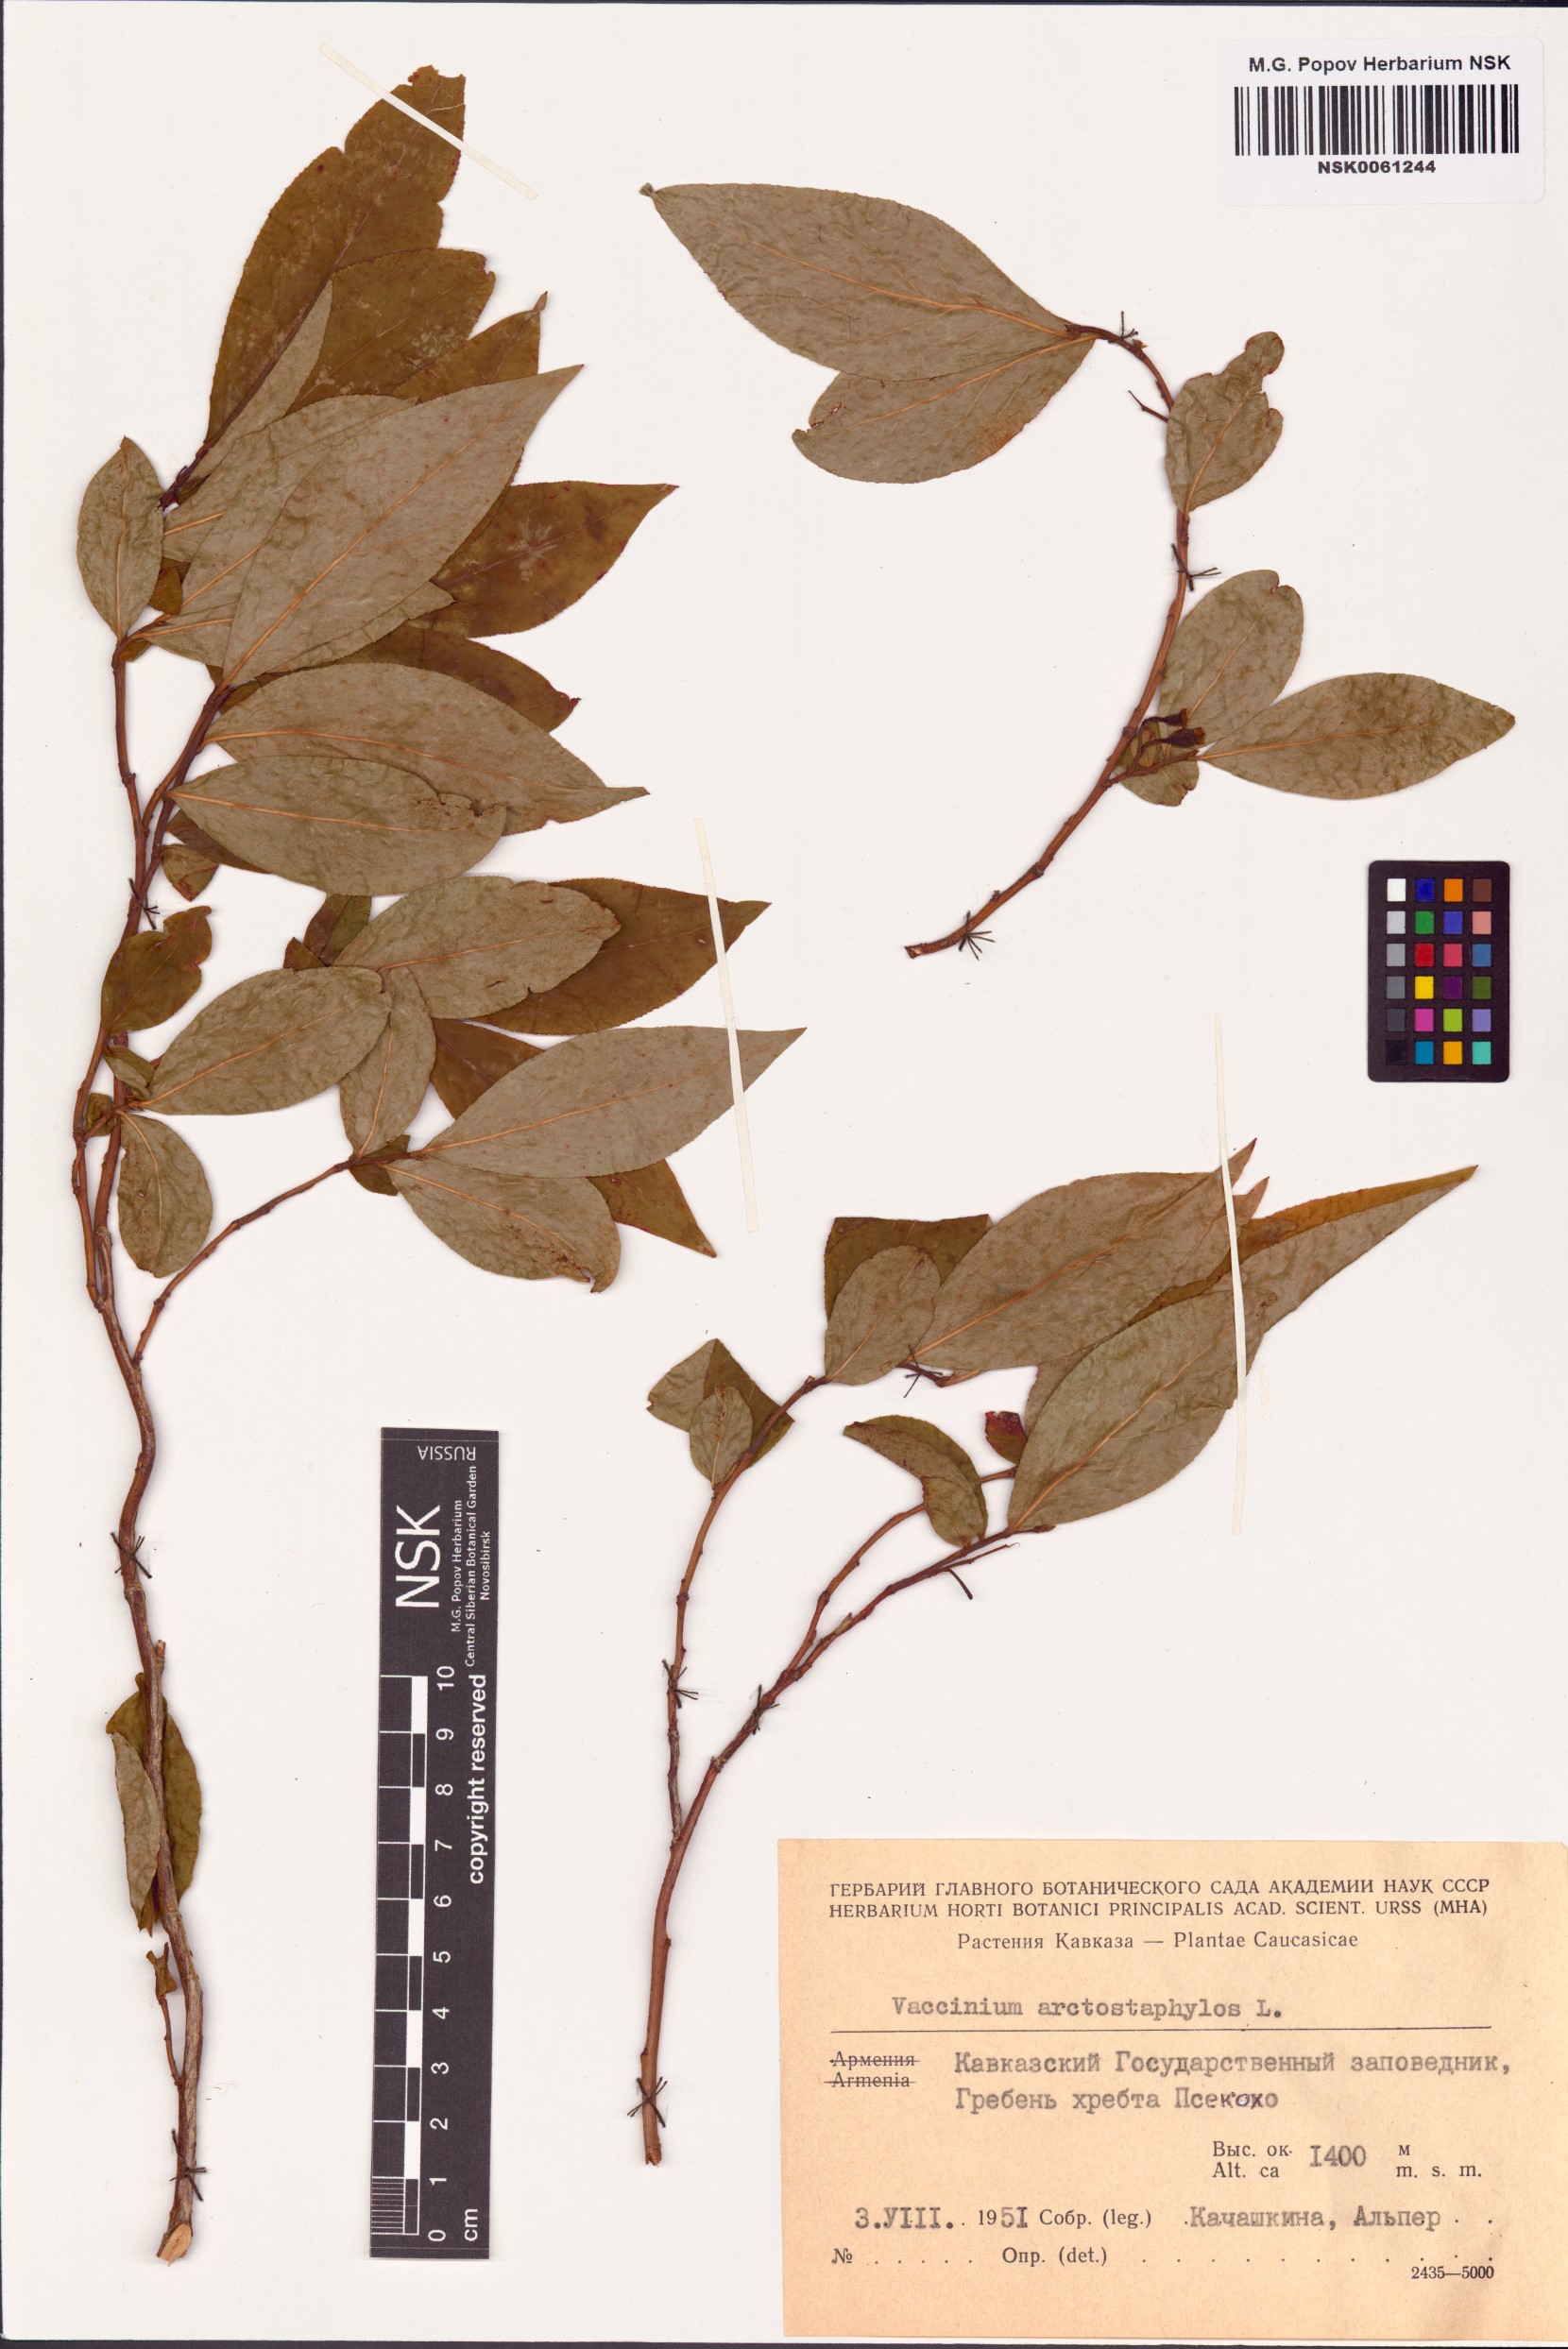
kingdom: Plantae
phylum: Tracheophyta
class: Magnoliopsida
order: Ericales
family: Ericaceae
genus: Vaccinium
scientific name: Vaccinium arctostaphylos
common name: Caucasian whortleberry
